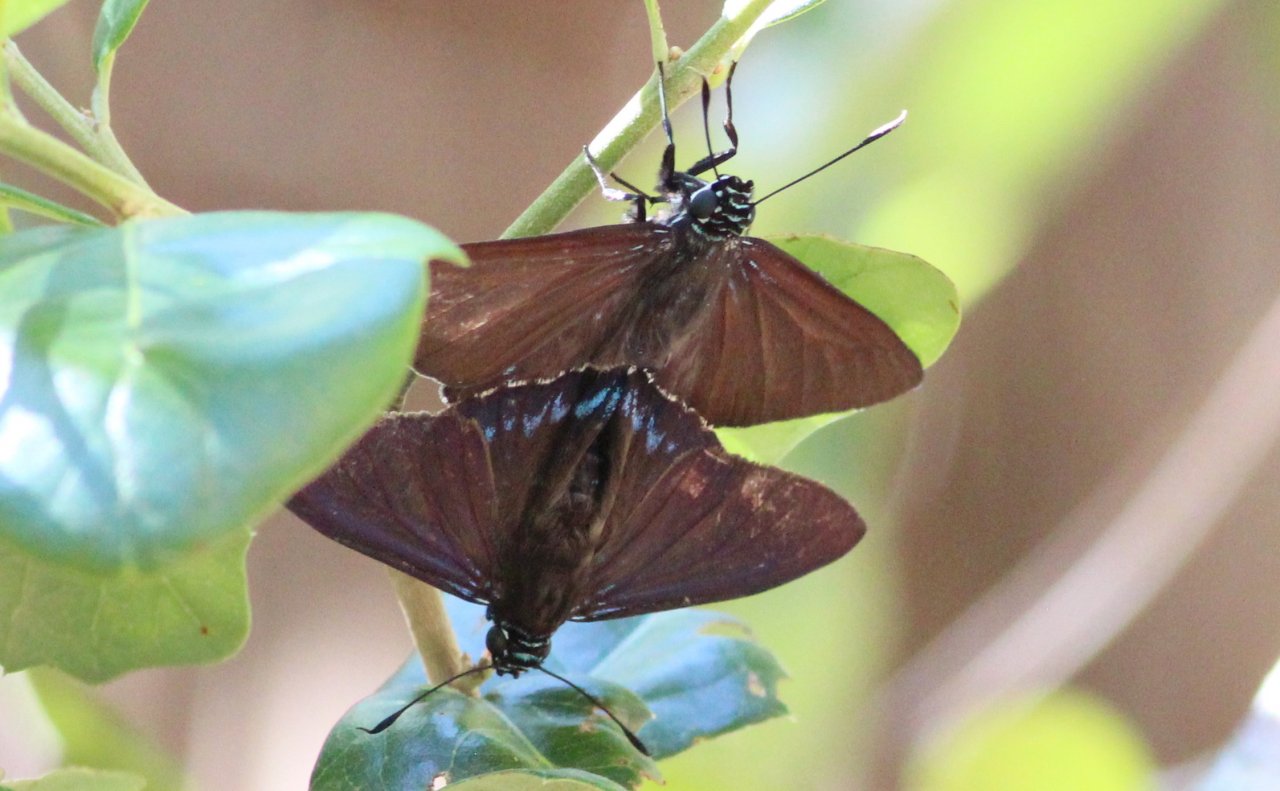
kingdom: Animalia
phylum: Arthropoda
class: Insecta
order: Lepidoptera
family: Hesperiidae
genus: Phocides
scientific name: Phocides pigmalion
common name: Mangrove Skipper
